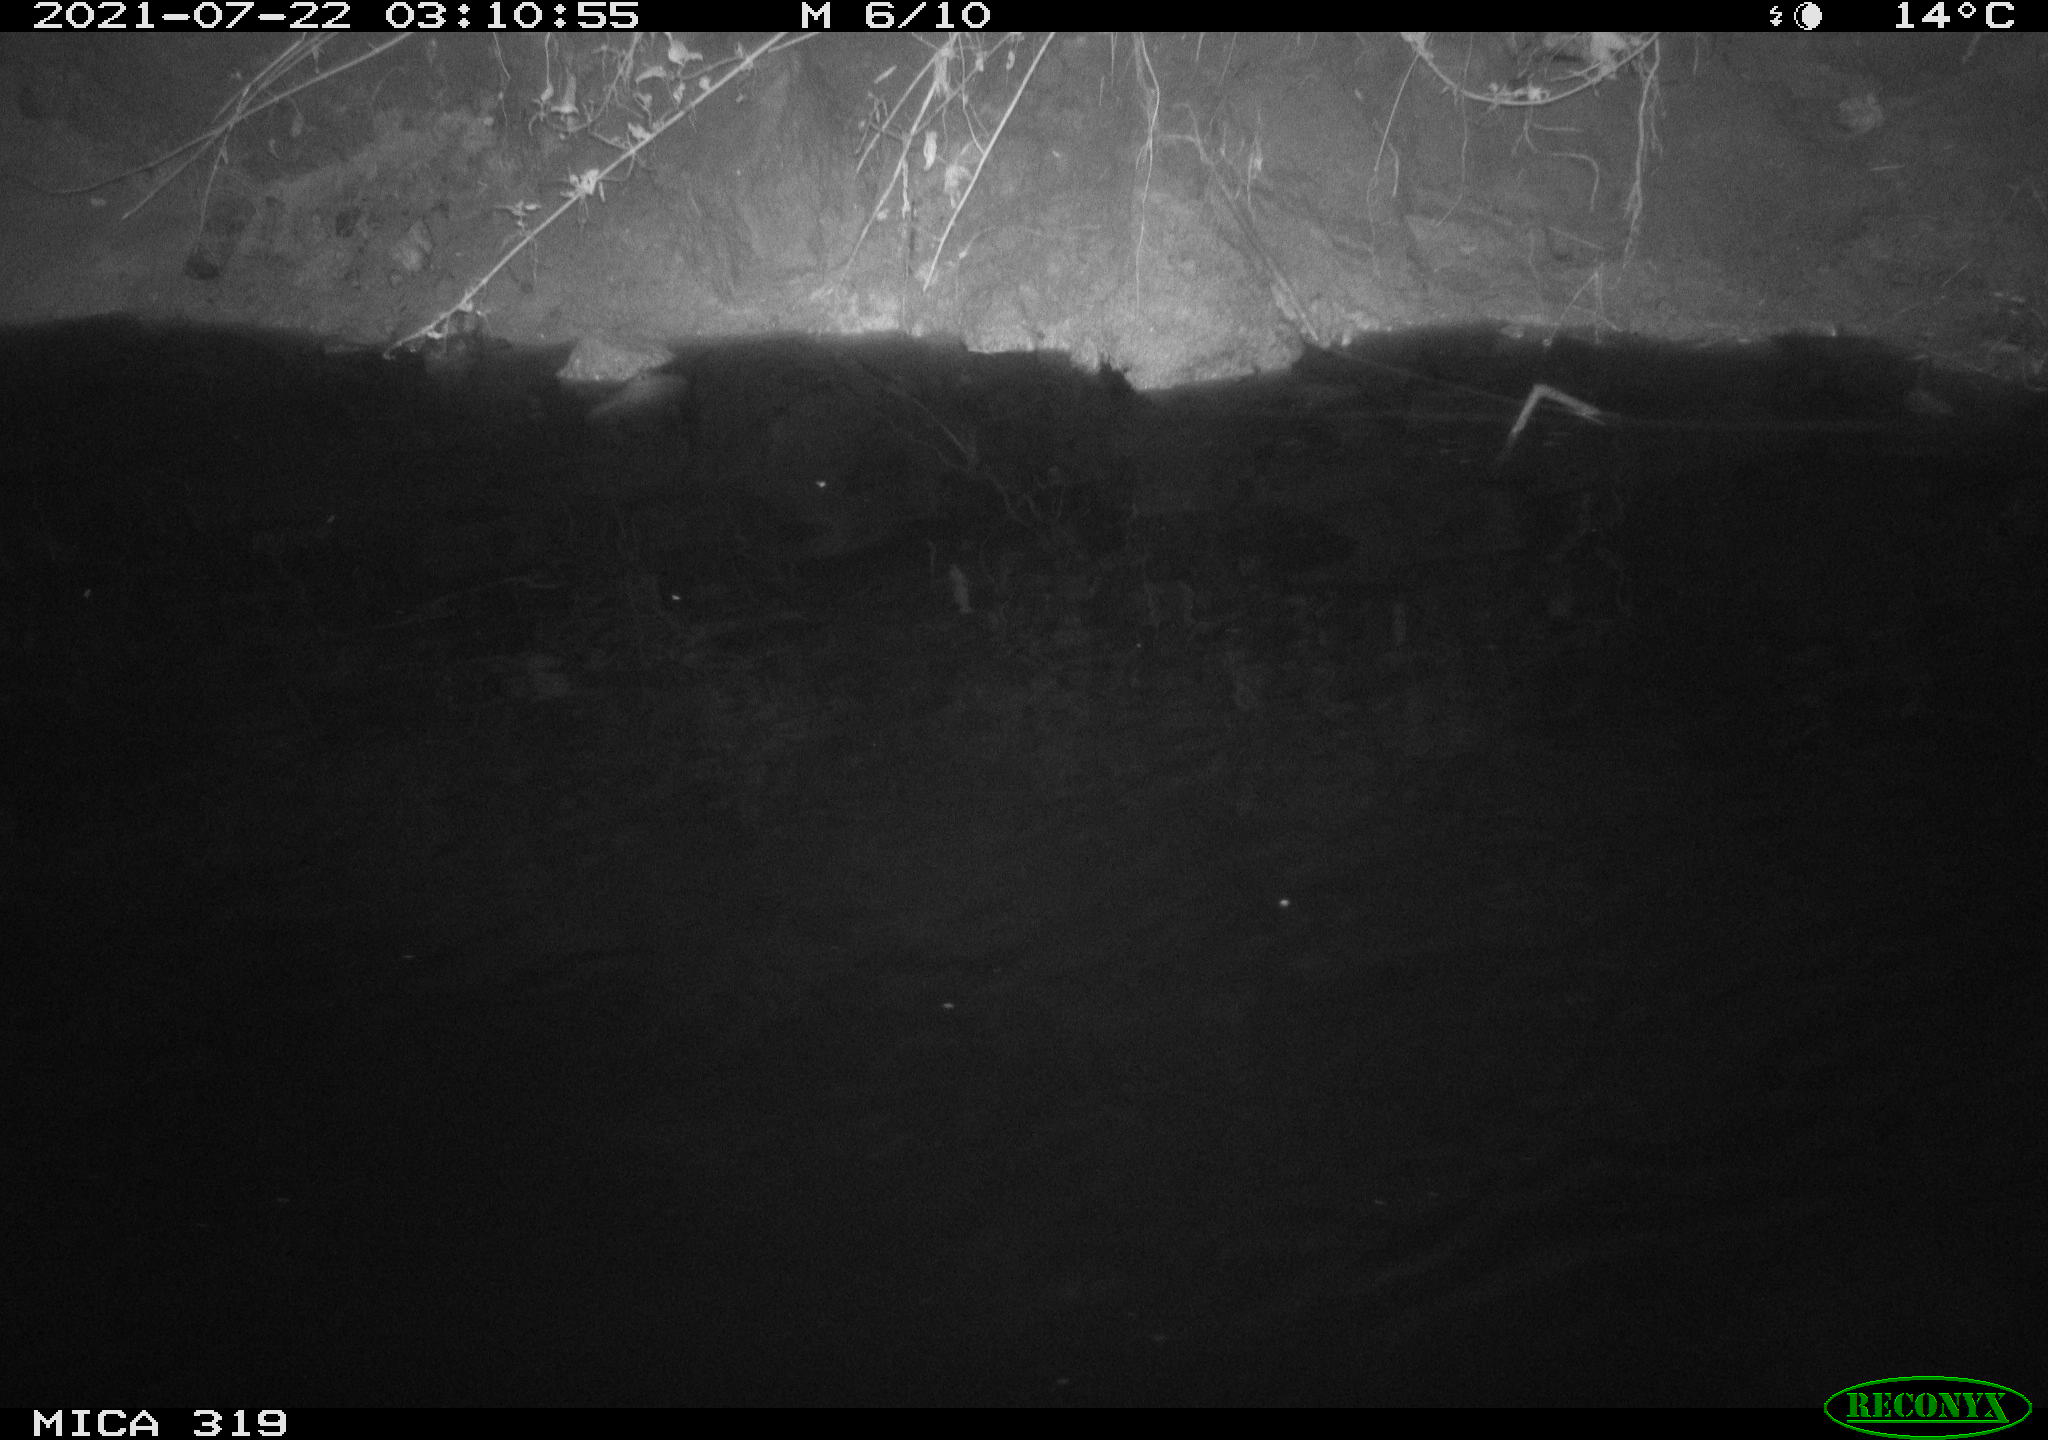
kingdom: Animalia
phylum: Chordata
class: Aves
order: Anseriformes
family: Anatidae
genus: Anas
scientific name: Anas platyrhynchos
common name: Mallard
